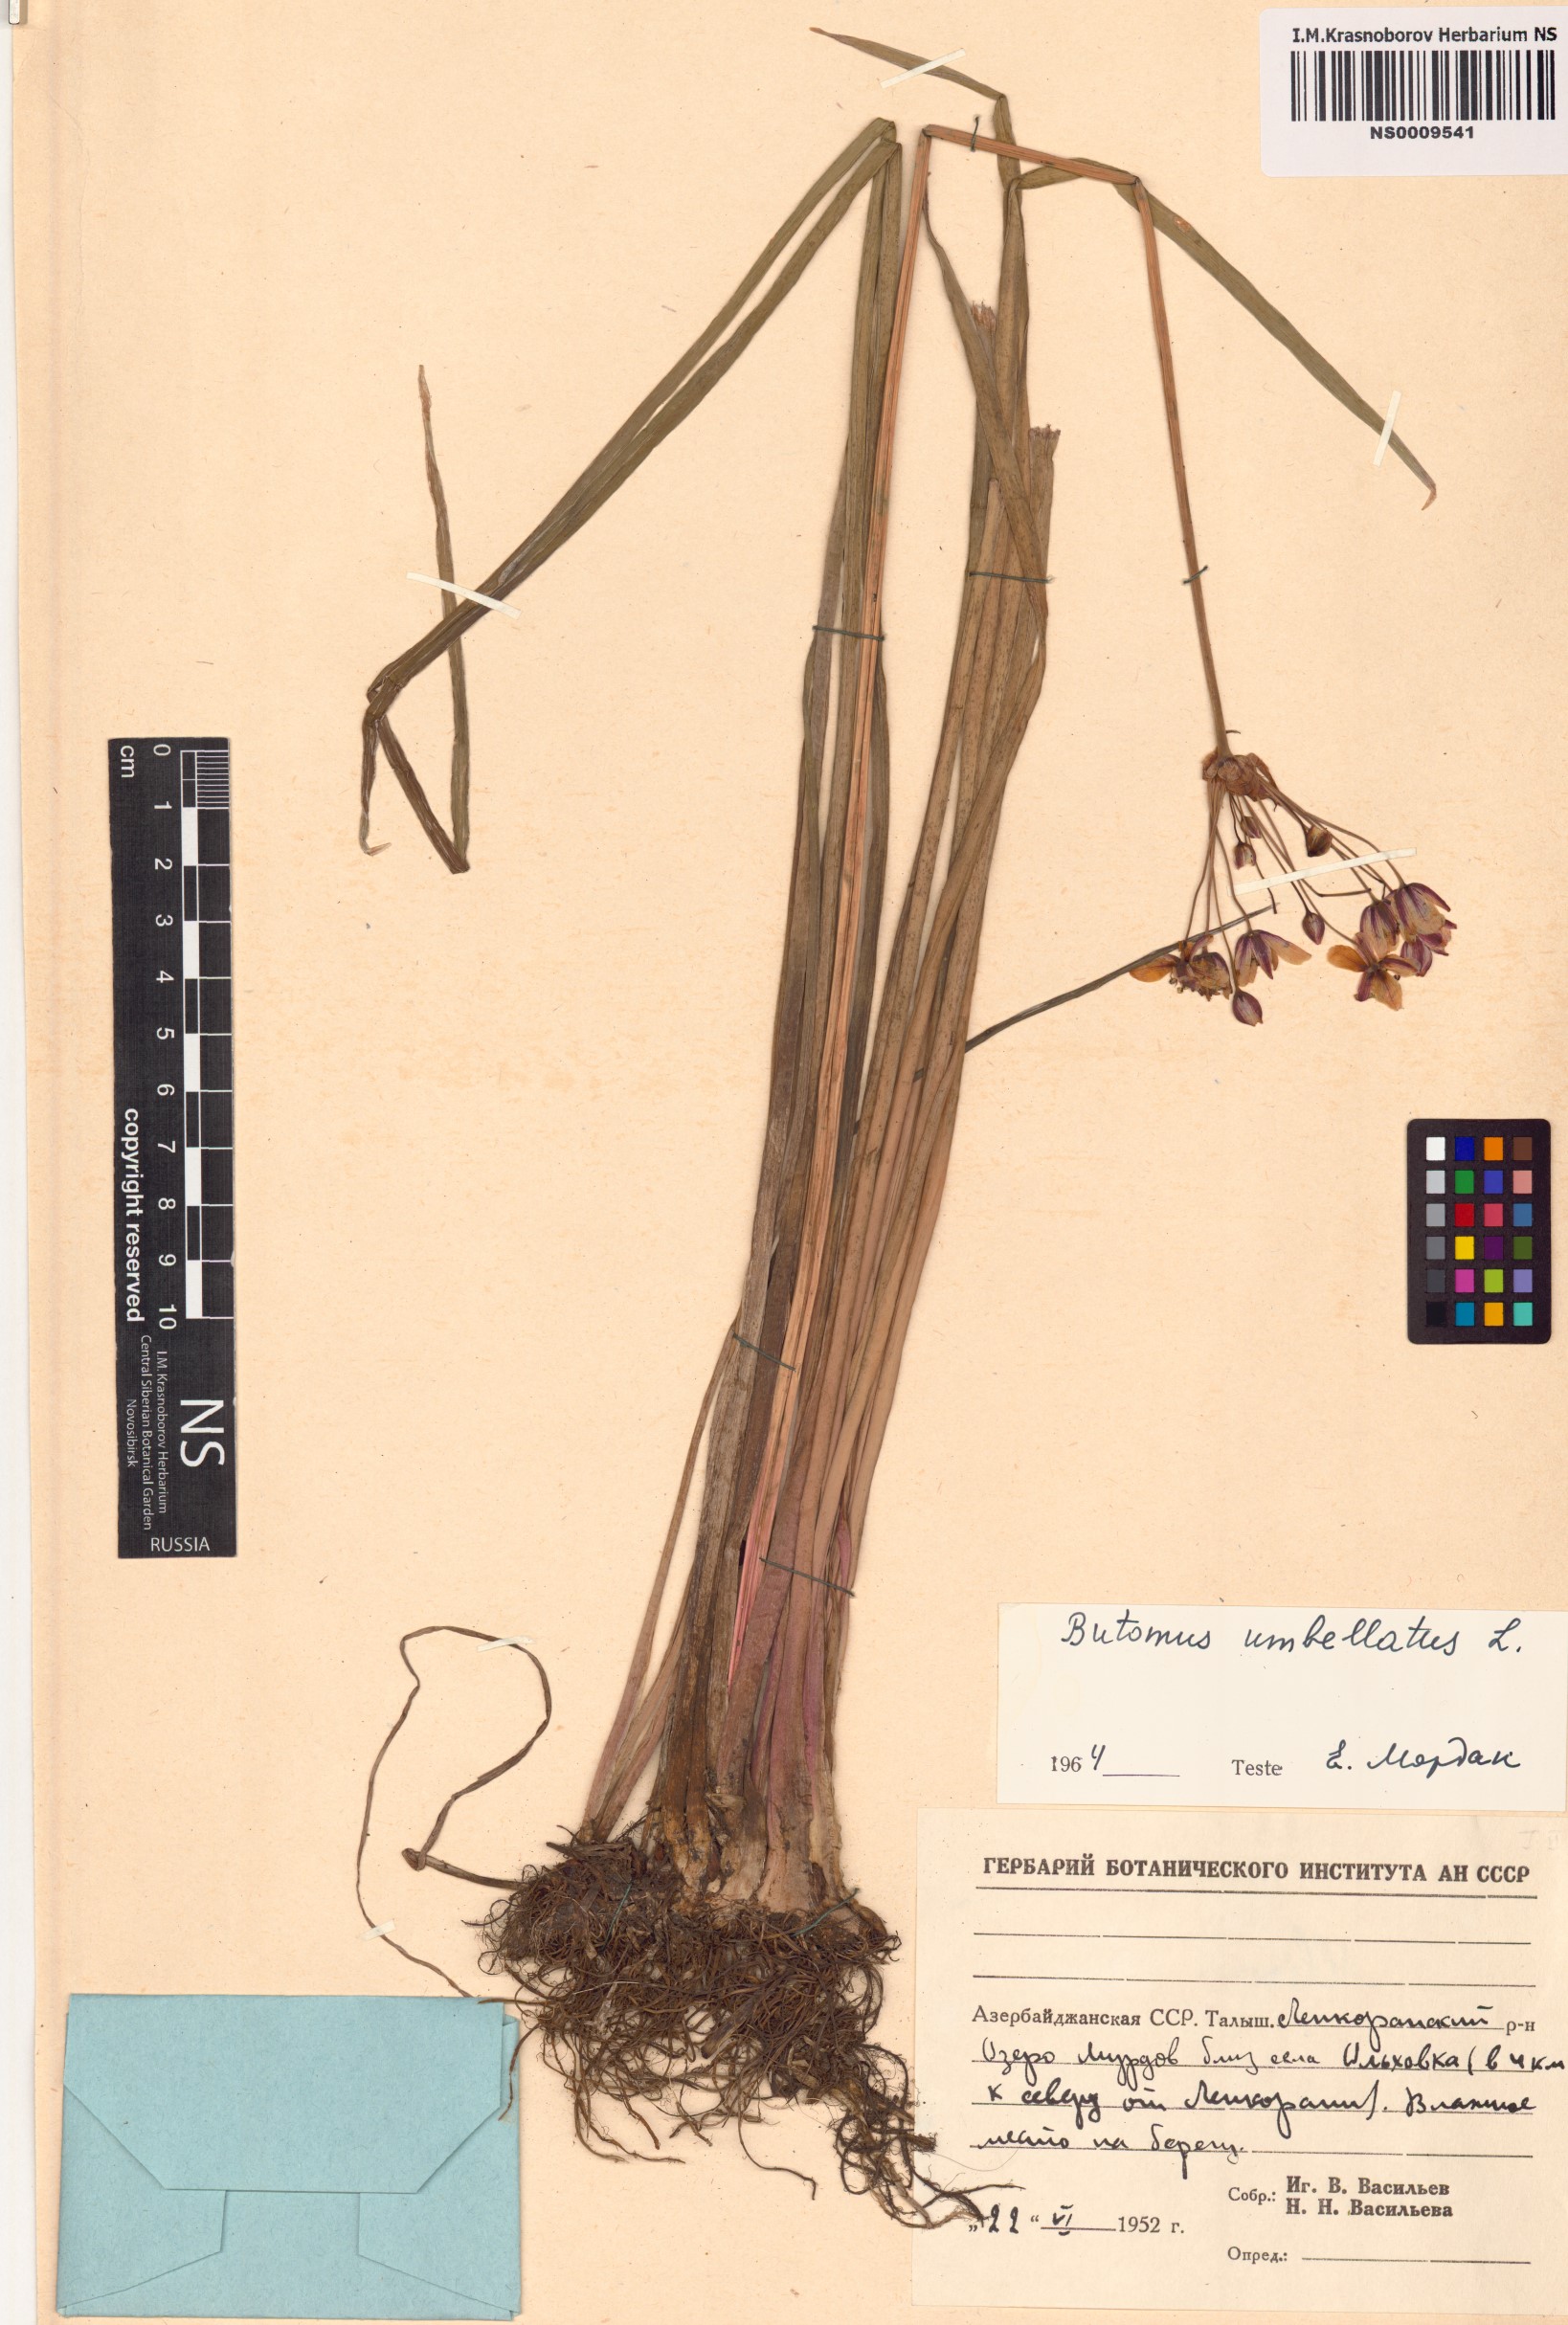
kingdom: Plantae
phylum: Tracheophyta
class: Liliopsida
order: Alismatales
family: Butomaceae
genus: Butomus
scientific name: Butomus umbellatus
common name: Flowering-rush
